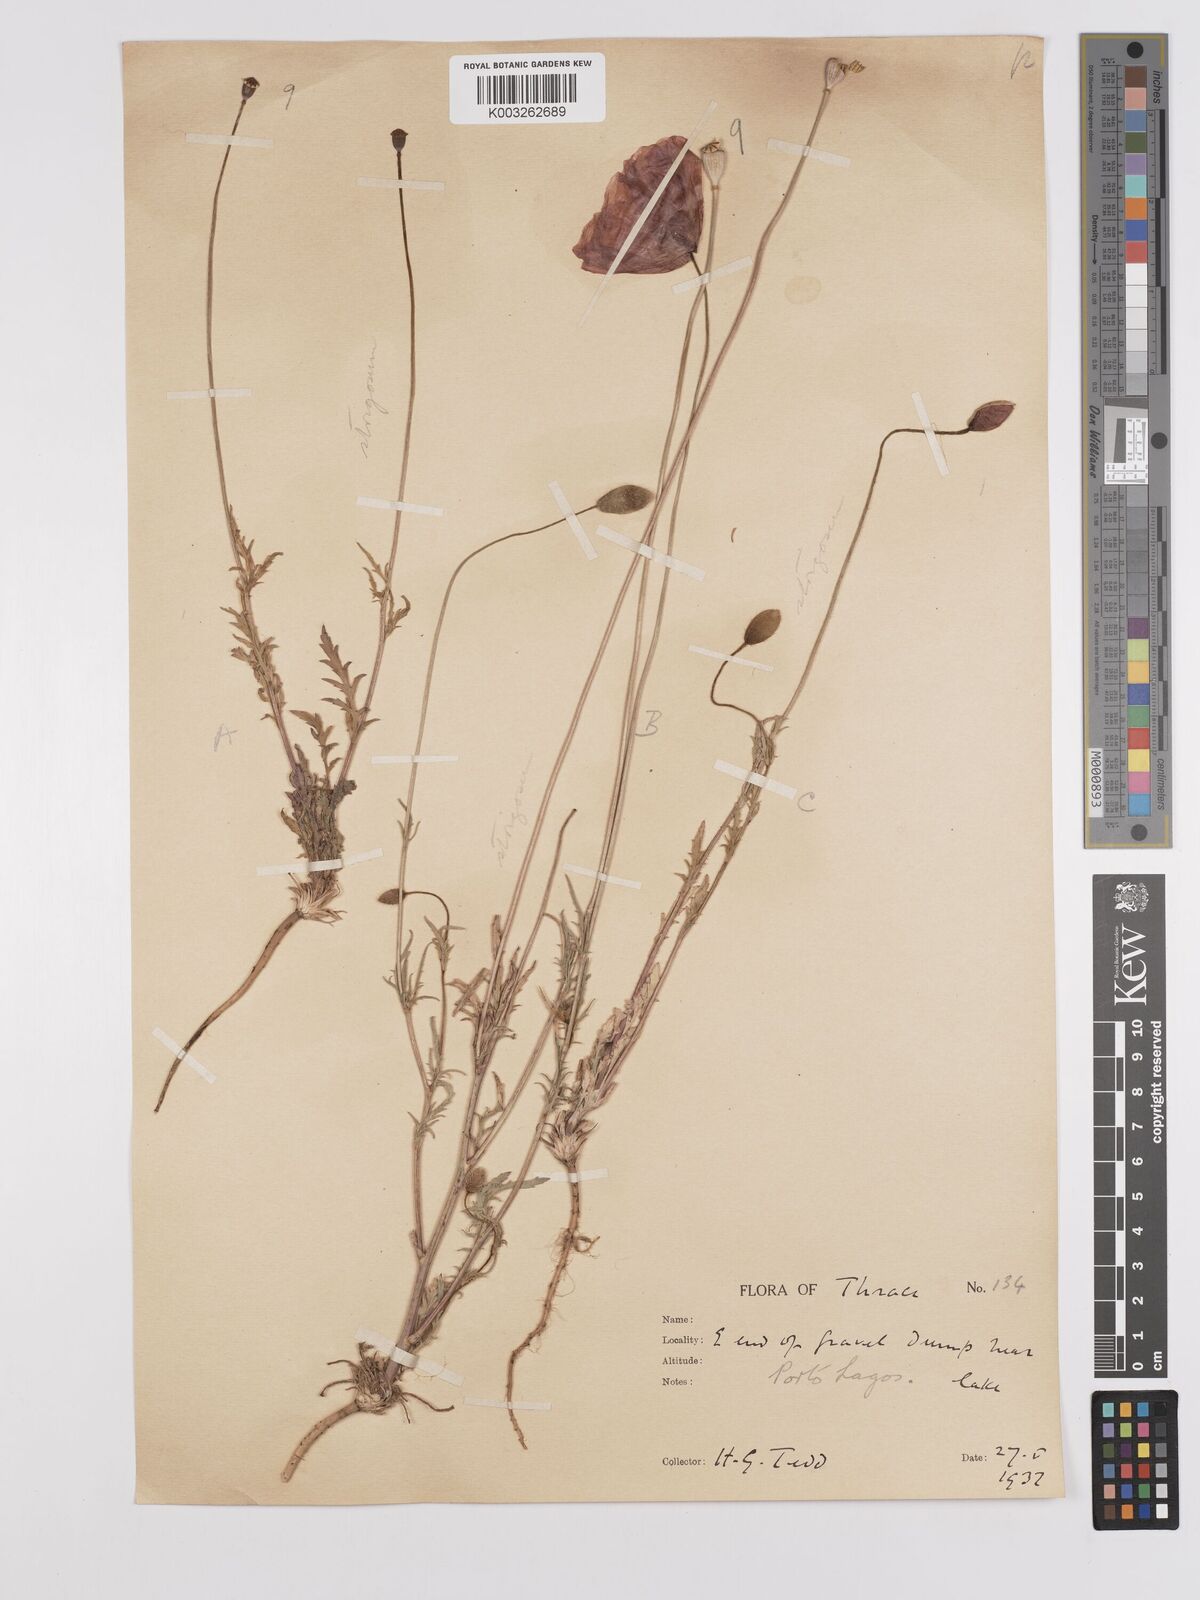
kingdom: Plantae
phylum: Tracheophyta
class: Magnoliopsida
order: Ranunculales
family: Papaveraceae
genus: Papaver
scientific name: Papaver
